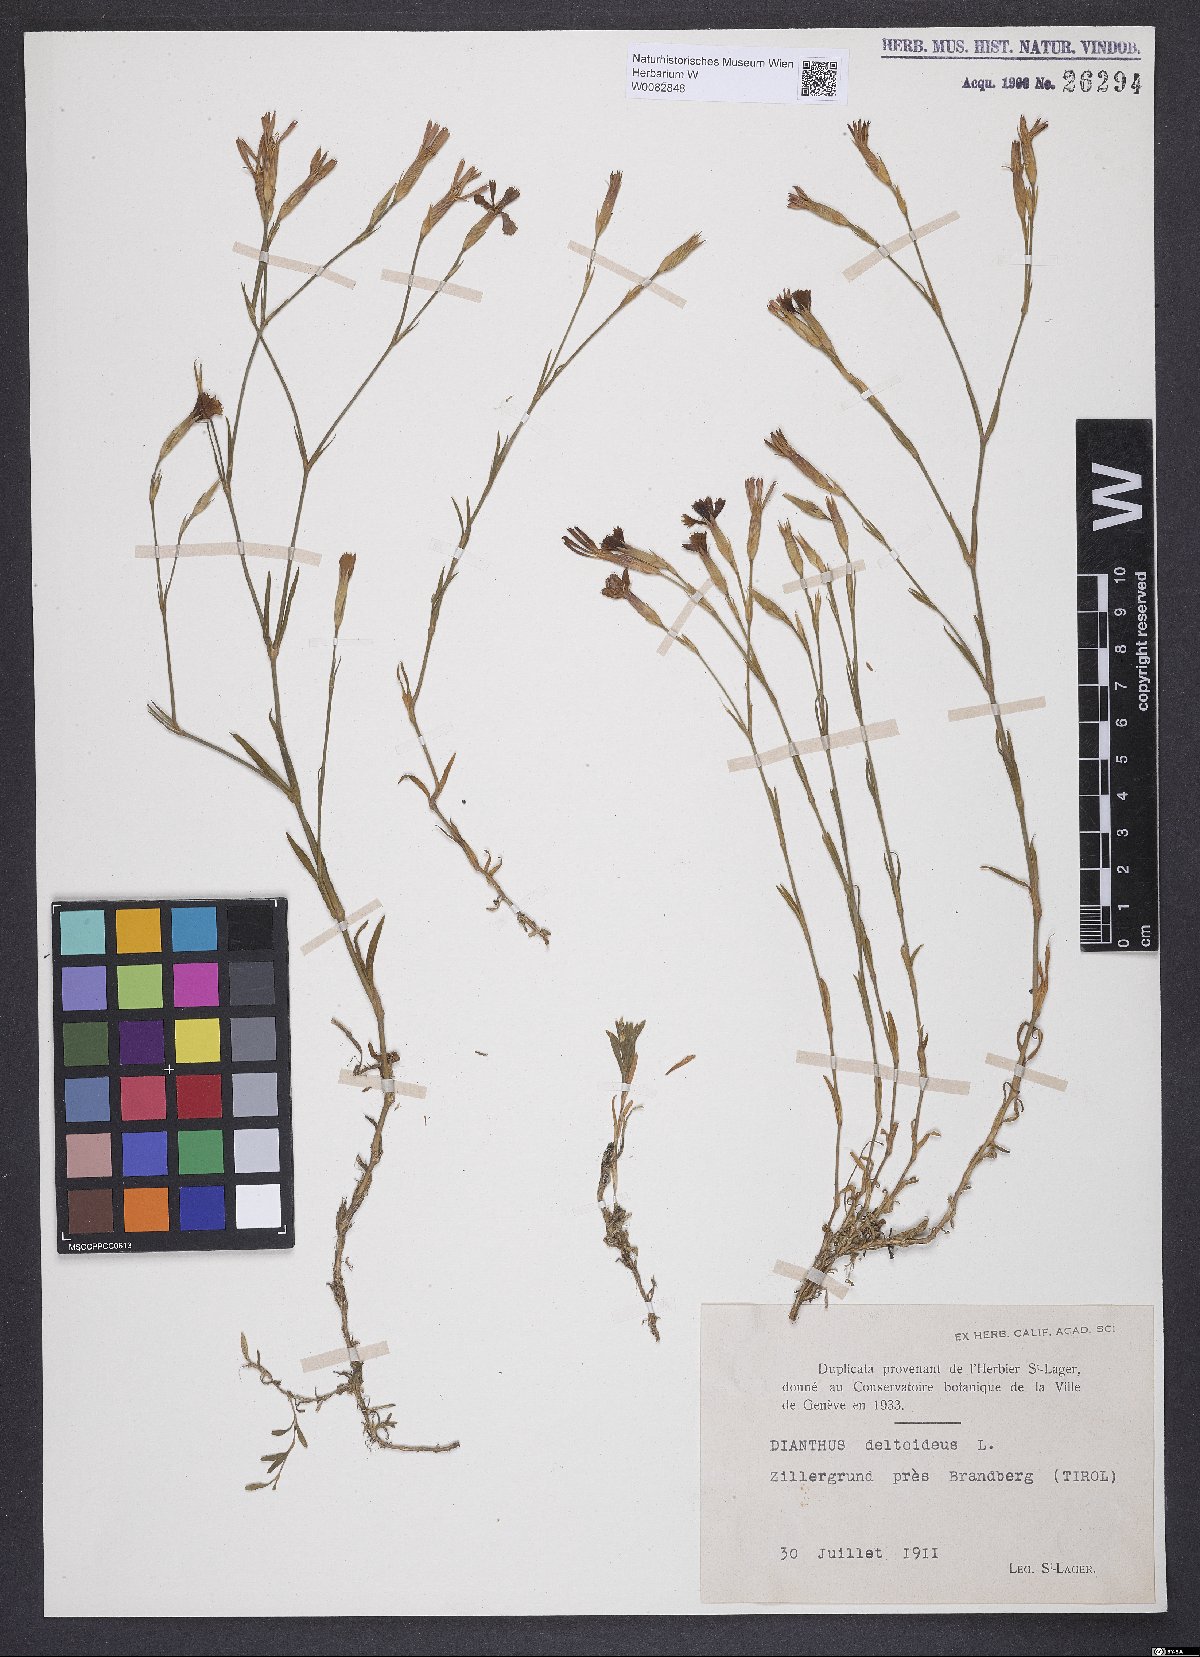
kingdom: Plantae
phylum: Tracheophyta
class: Magnoliopsida
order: Caryophyllales
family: Caryophyllaceae
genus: Dianthus
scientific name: Dianthus deltoides
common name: Maiden pink
